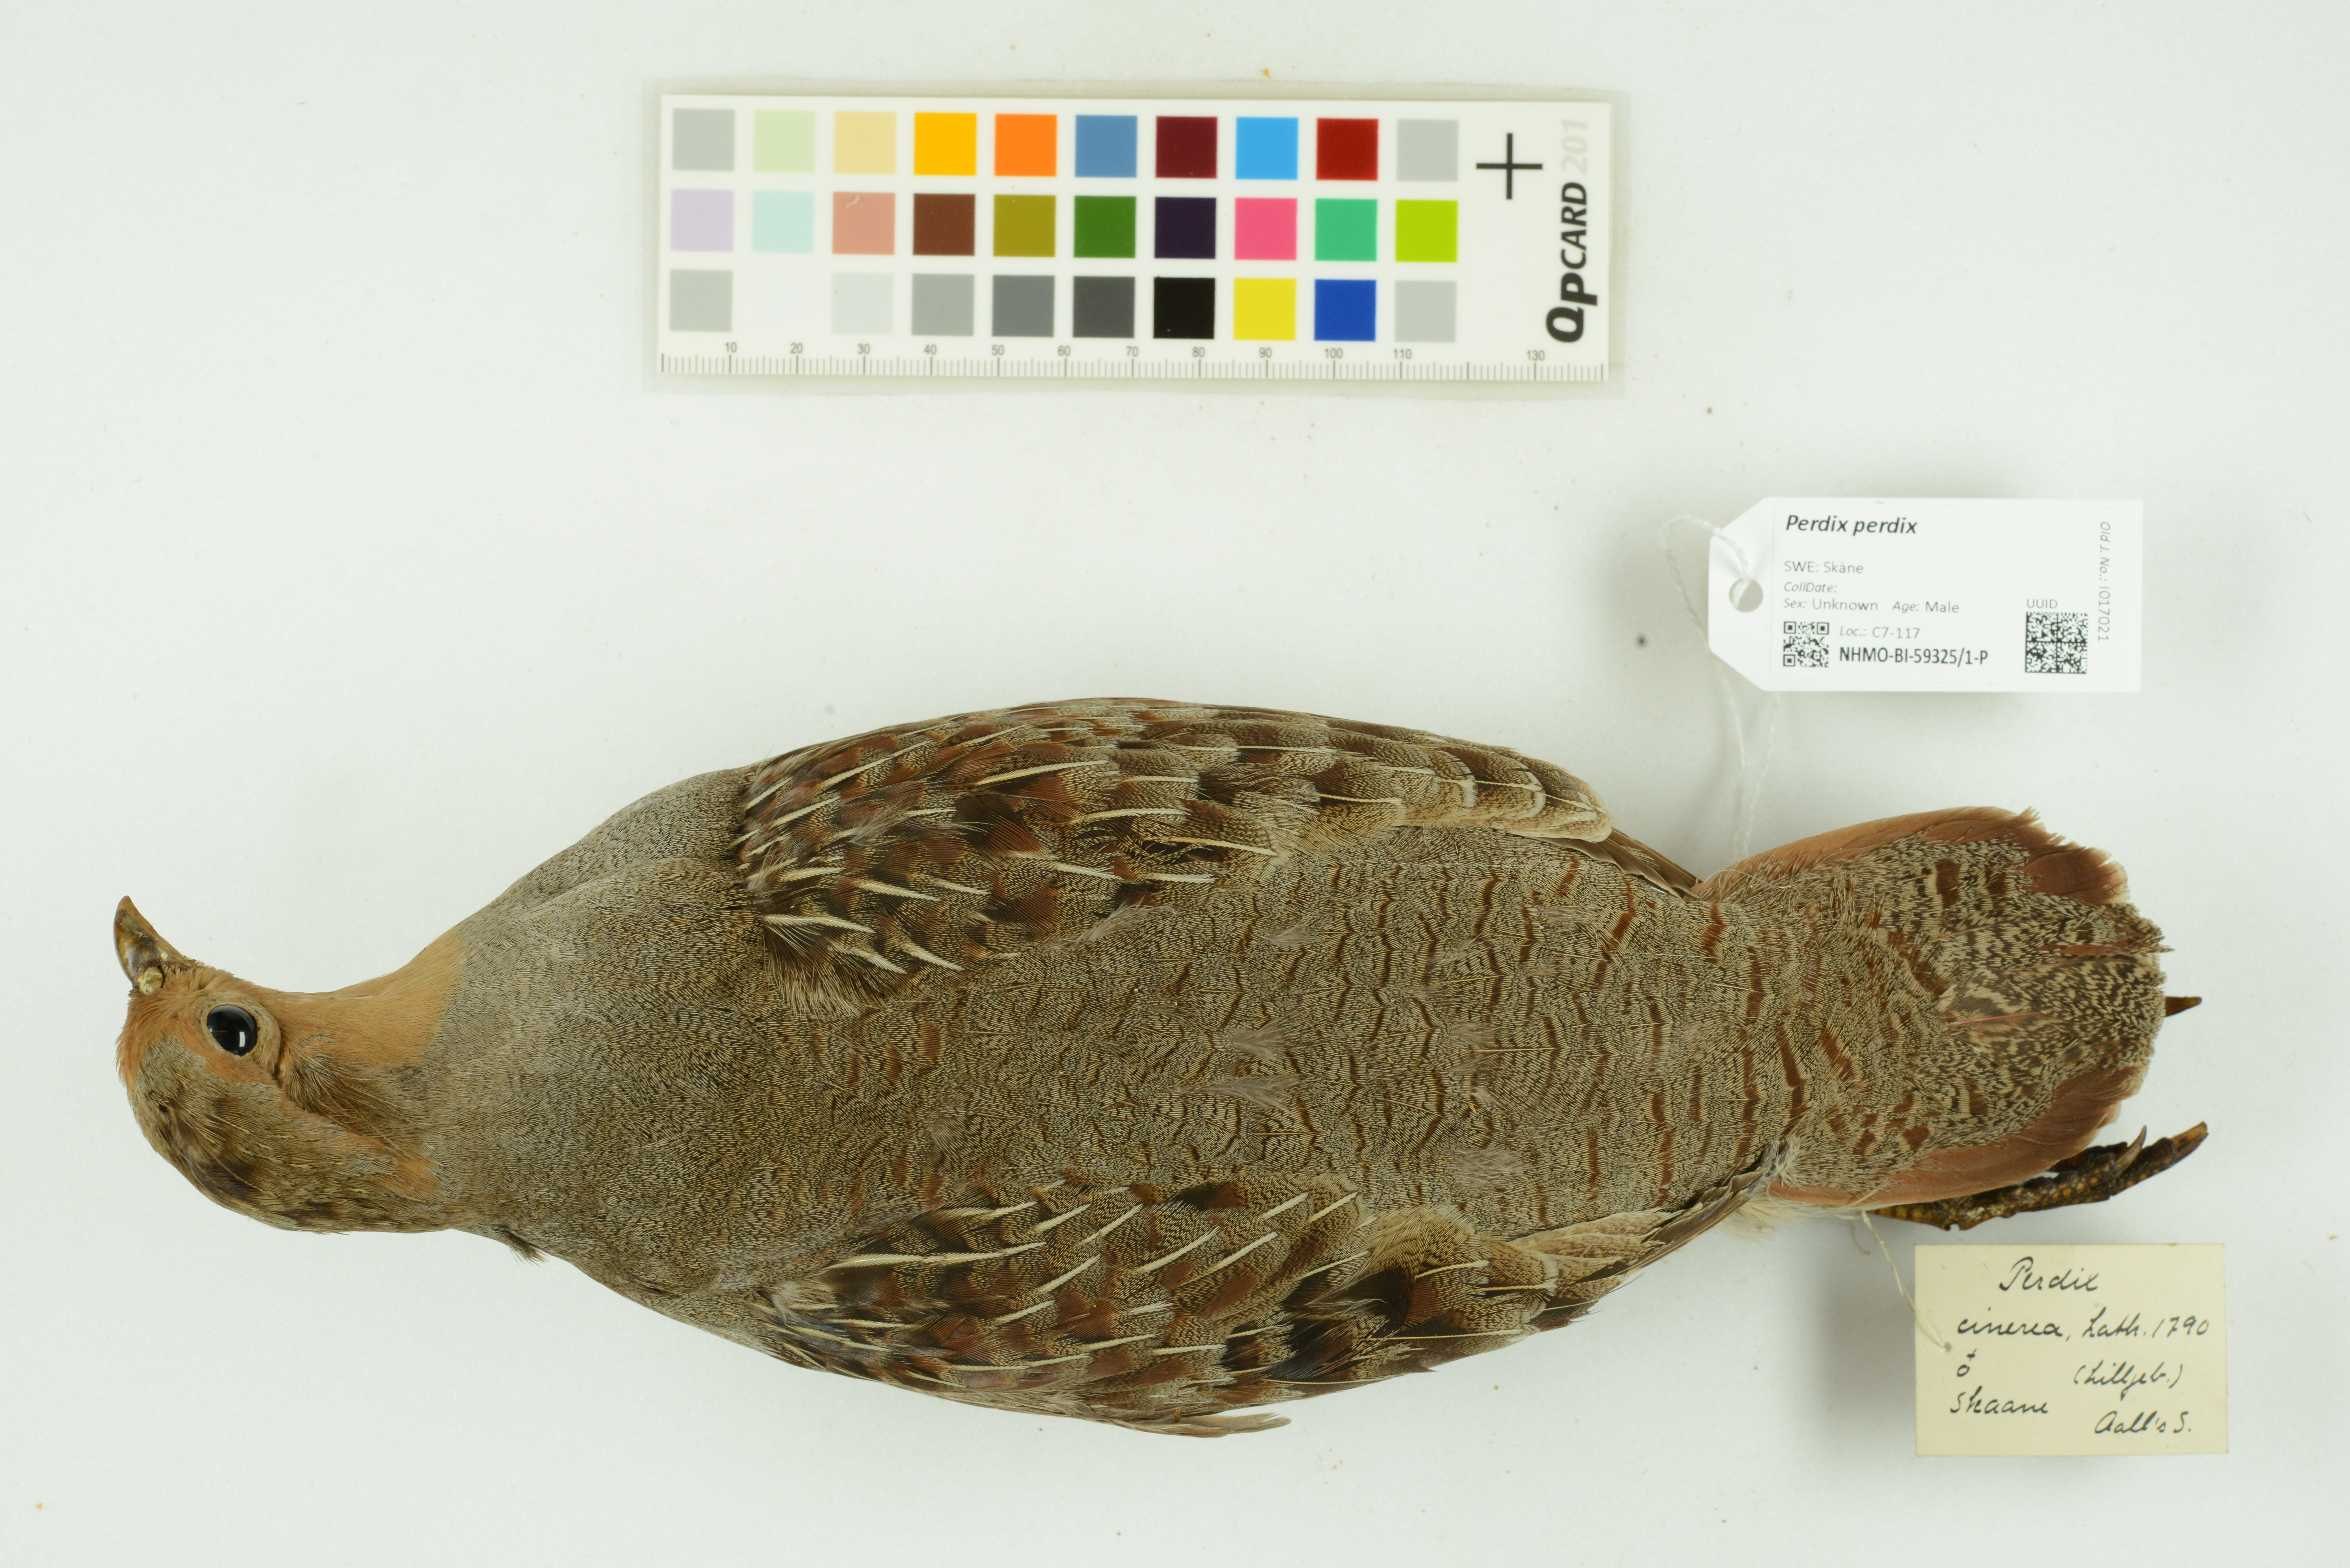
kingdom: Animalia
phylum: Chordata
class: Aves
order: Galliformes
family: Phasianidae
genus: Perdix
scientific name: Perdix perdix
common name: Grey partridge
